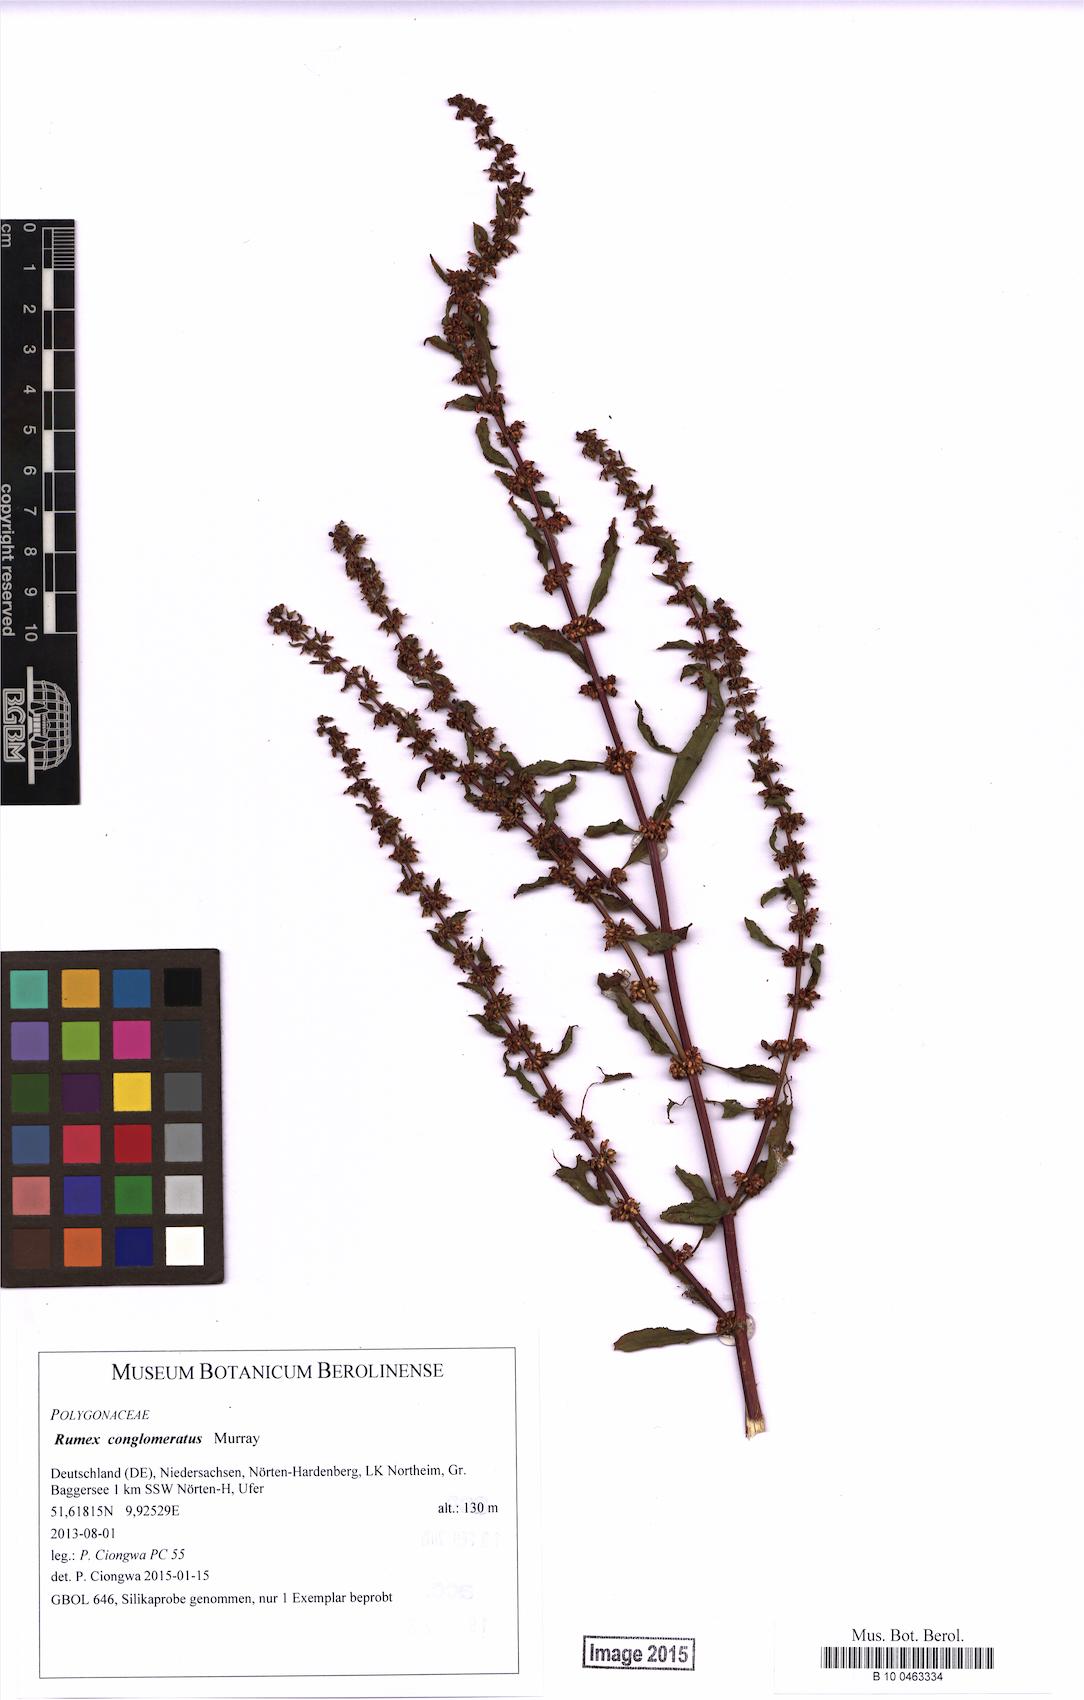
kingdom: Plantae
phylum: Tracheophyta
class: Magnoliopsida
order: Caryophyllales
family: Polygonaceae
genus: Rumex
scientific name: Rumex conglomeratus
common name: Clustered dock
